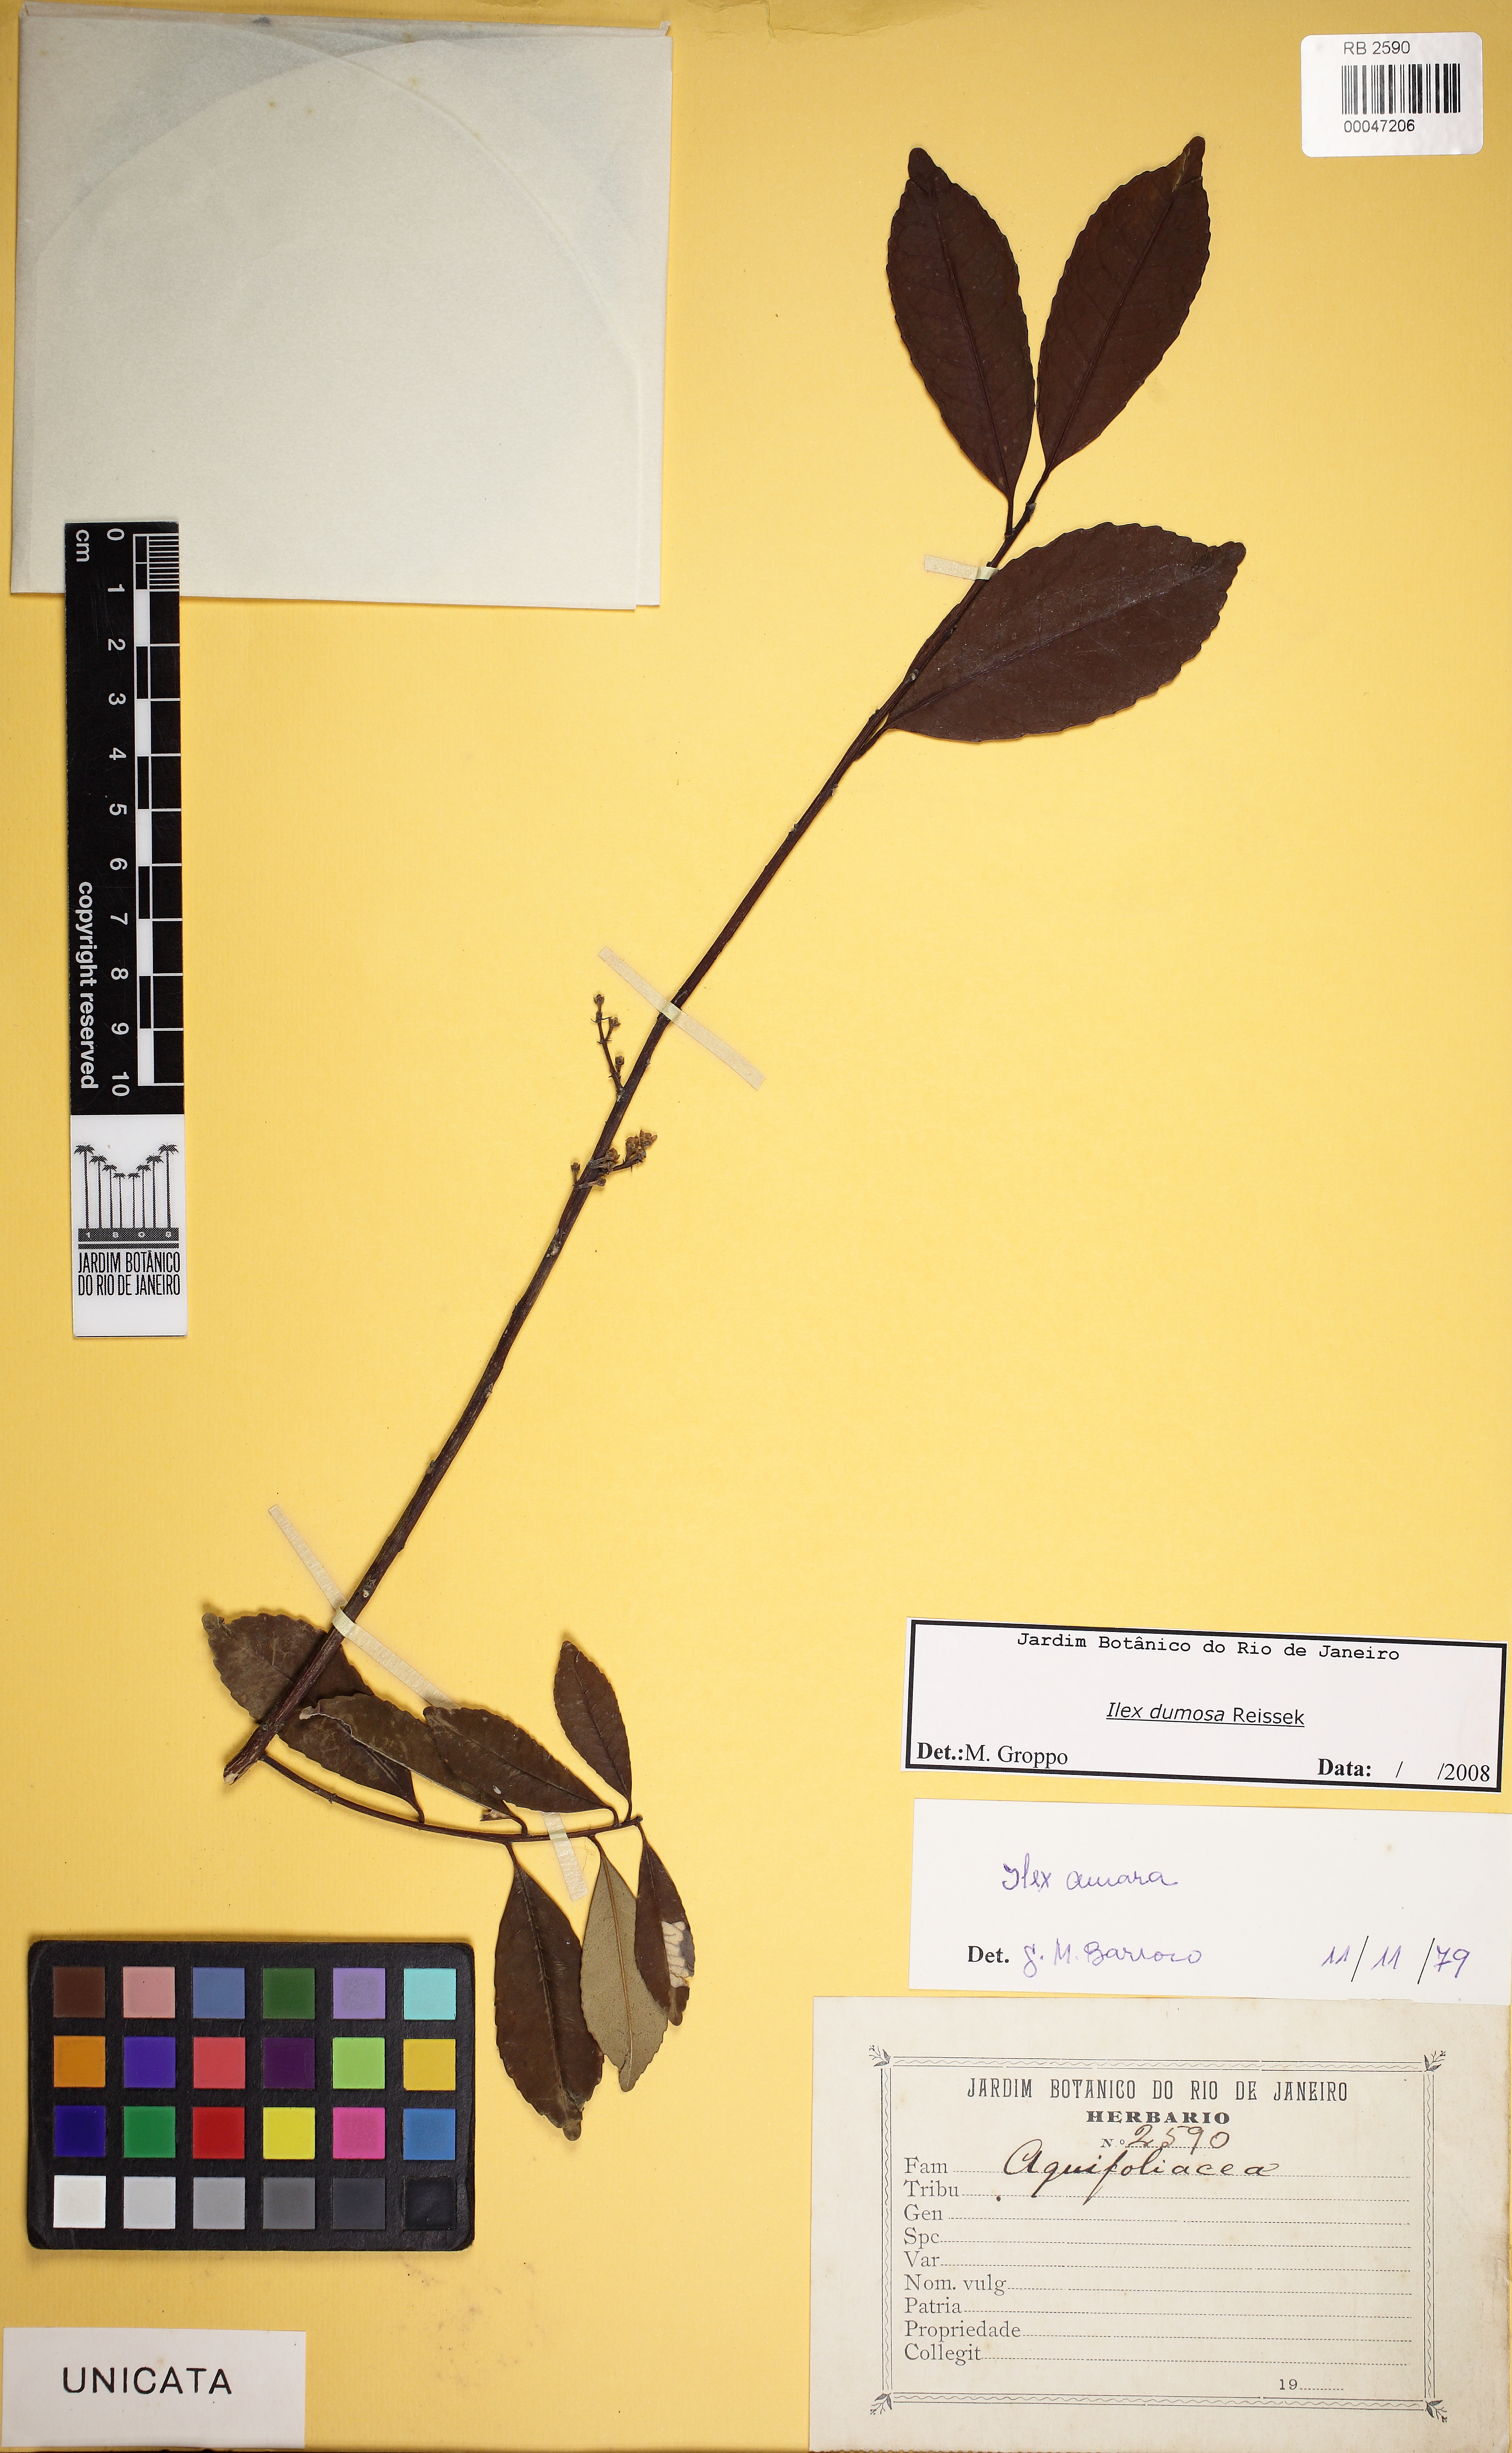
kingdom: Plantae
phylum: Tracheophyta
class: Magnoliopsida
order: Aquifoliales
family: Aquifoliaceae
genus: Ilex
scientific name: Ilex dumosa
